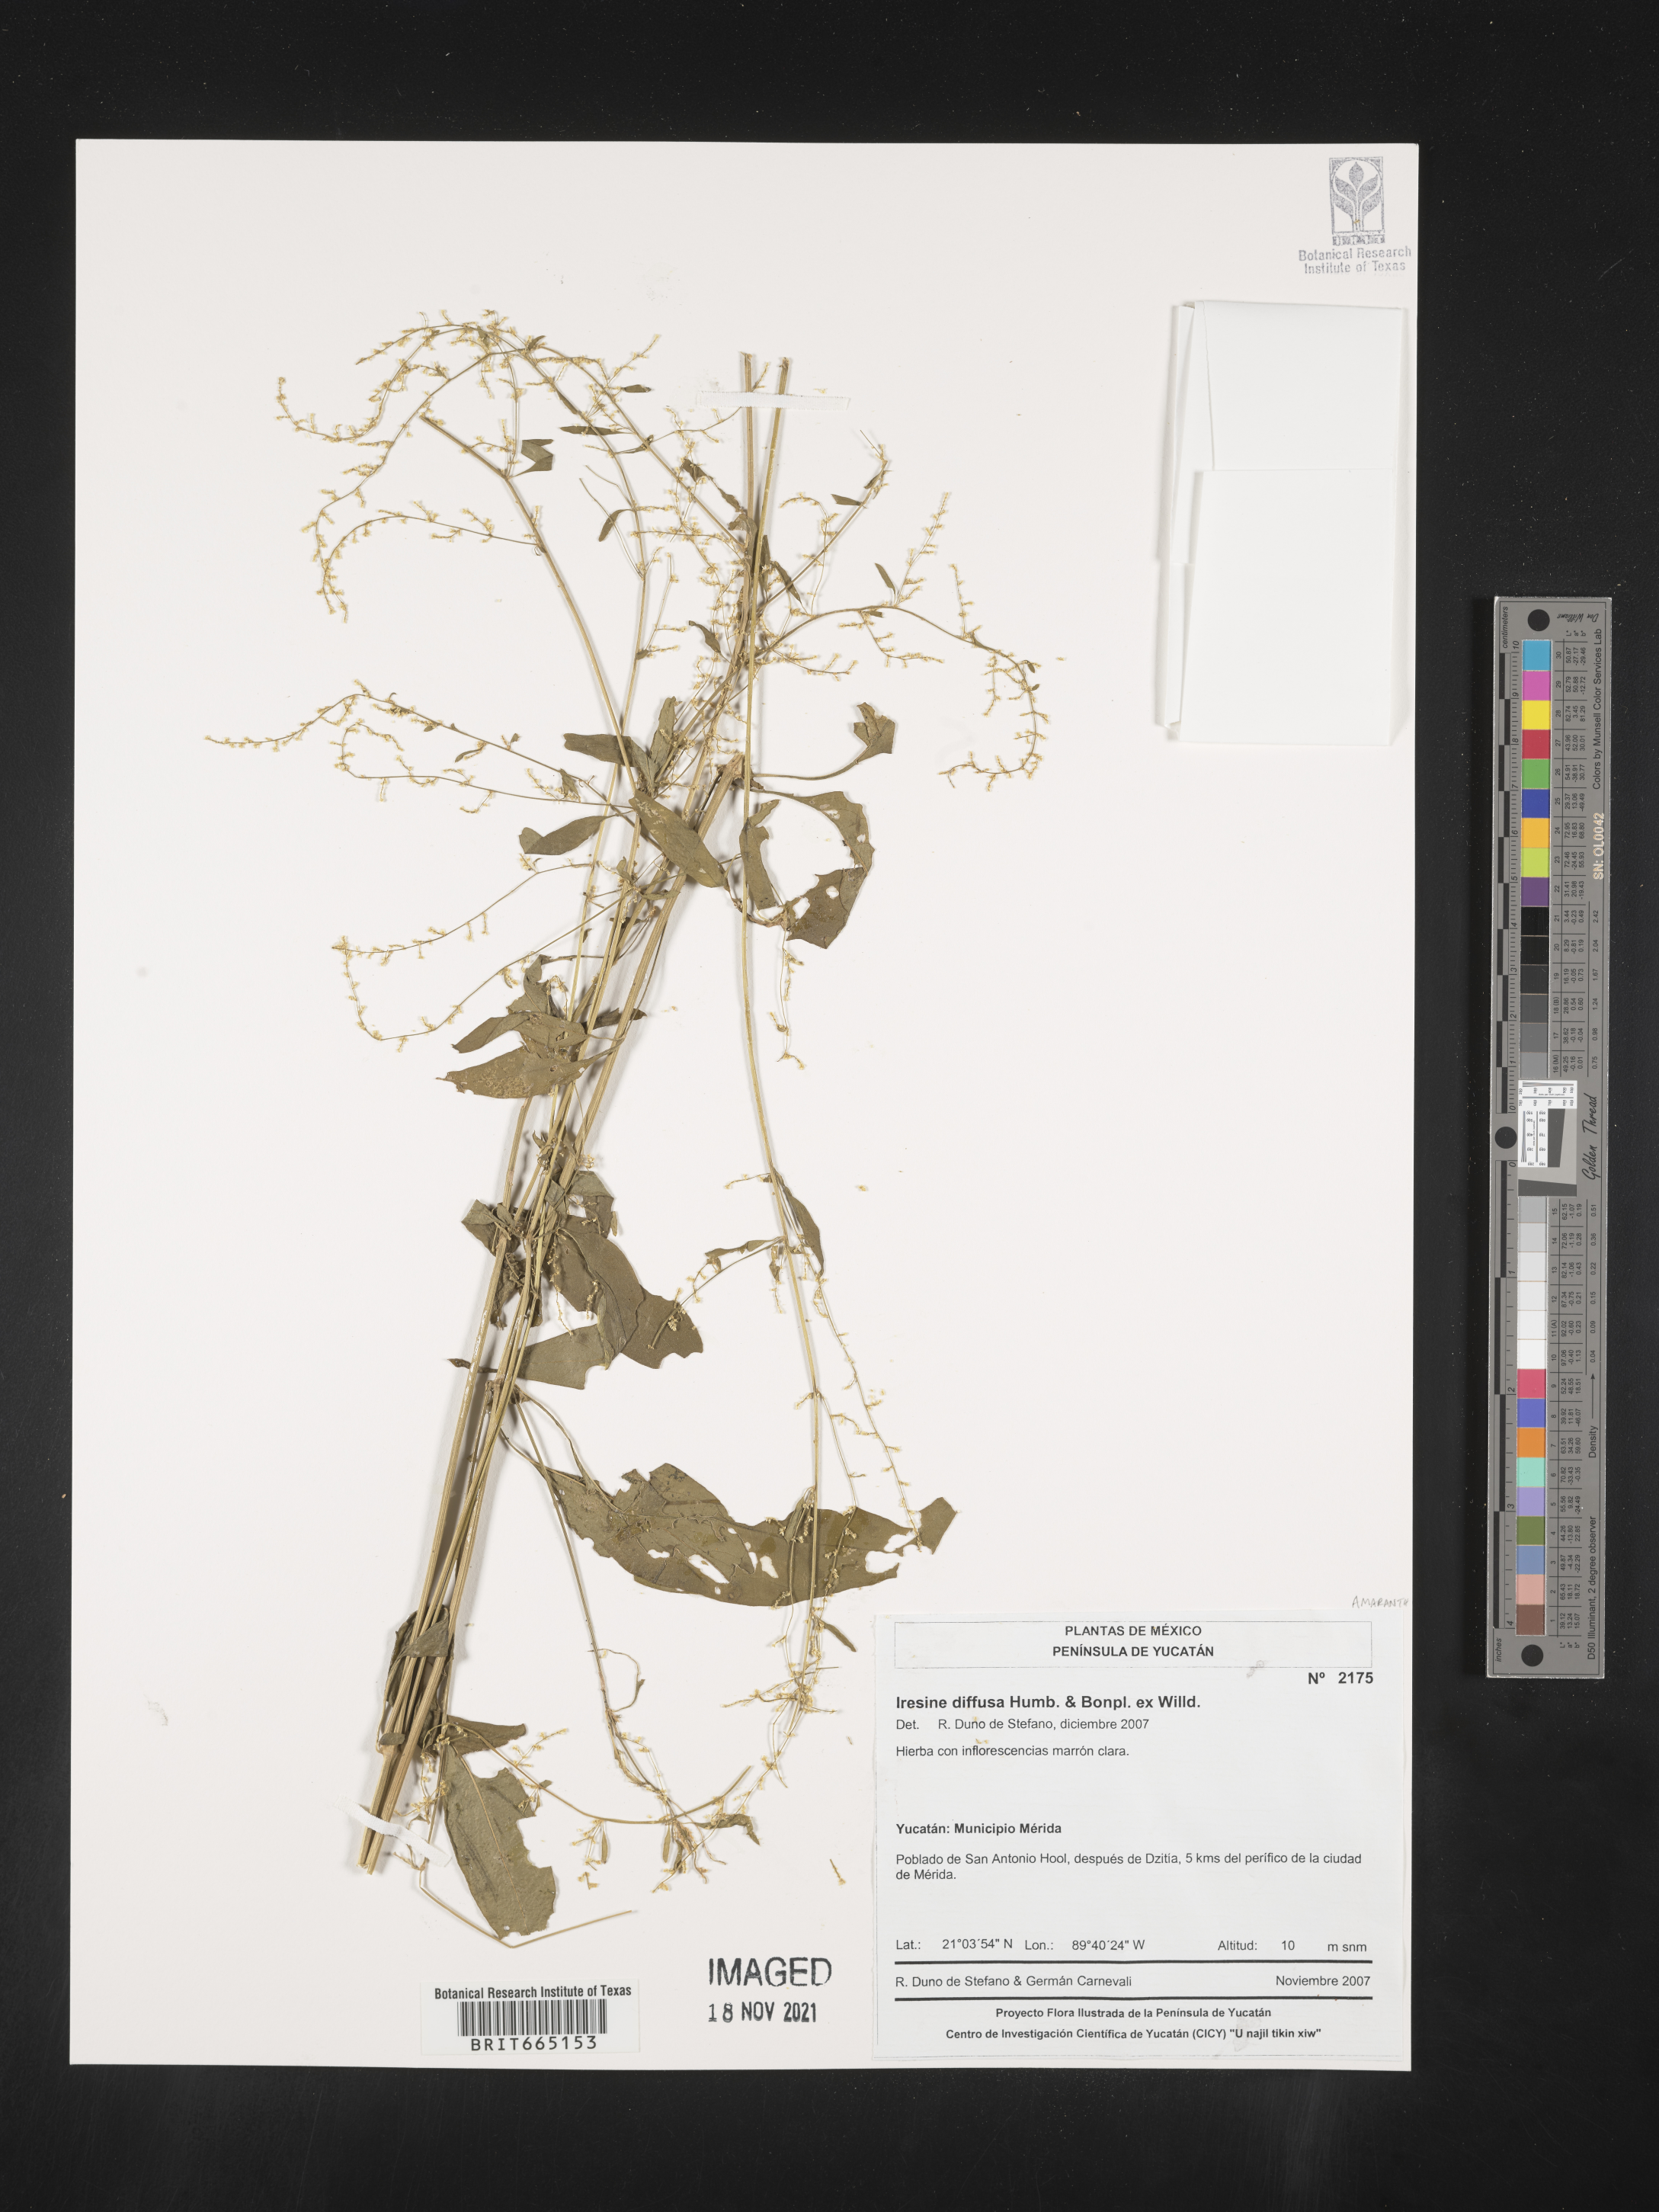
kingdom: Plantae
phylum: Tracheophyta
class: Magnoliopsida
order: Caryophyllales
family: Amaranthaceae
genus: Iresine
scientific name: Iresine
